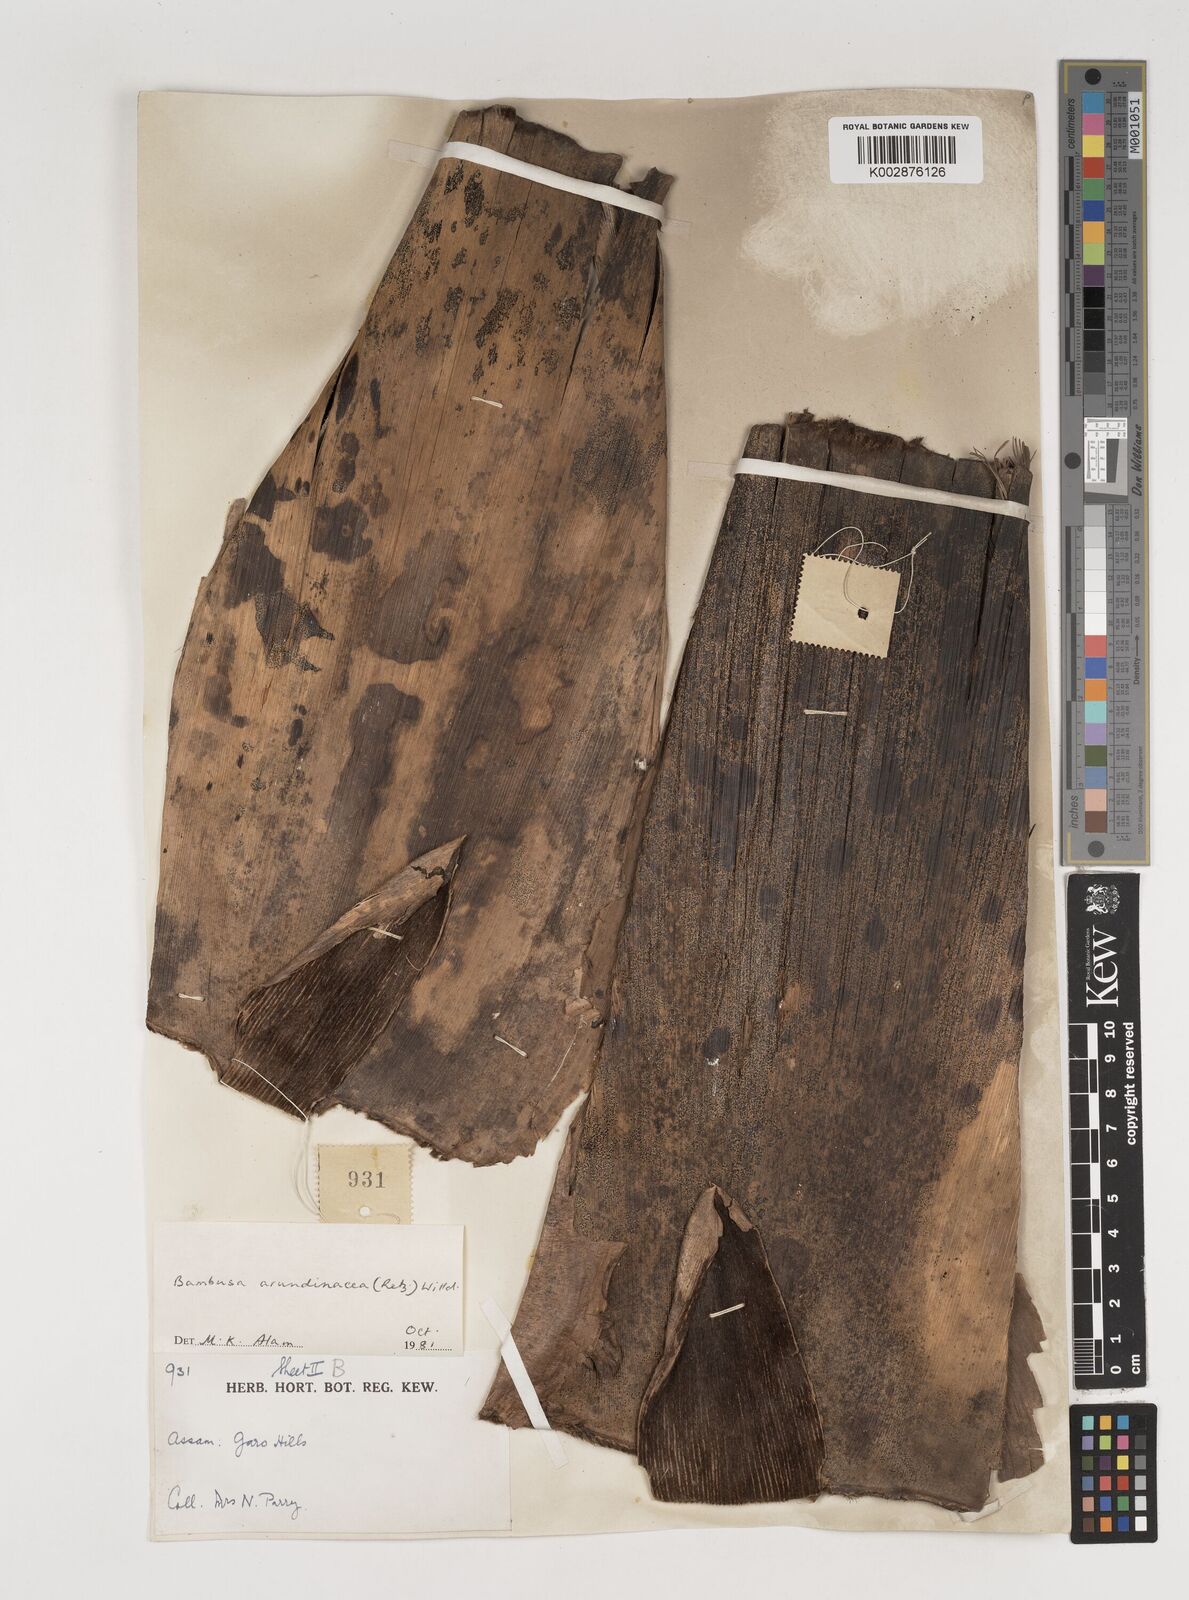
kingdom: Plantae
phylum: Tracheophyta
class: Liliopsida
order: Poales
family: Poaceae
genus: Bambusa
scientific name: Bambusa bambos
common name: Indian thorny bamboo
